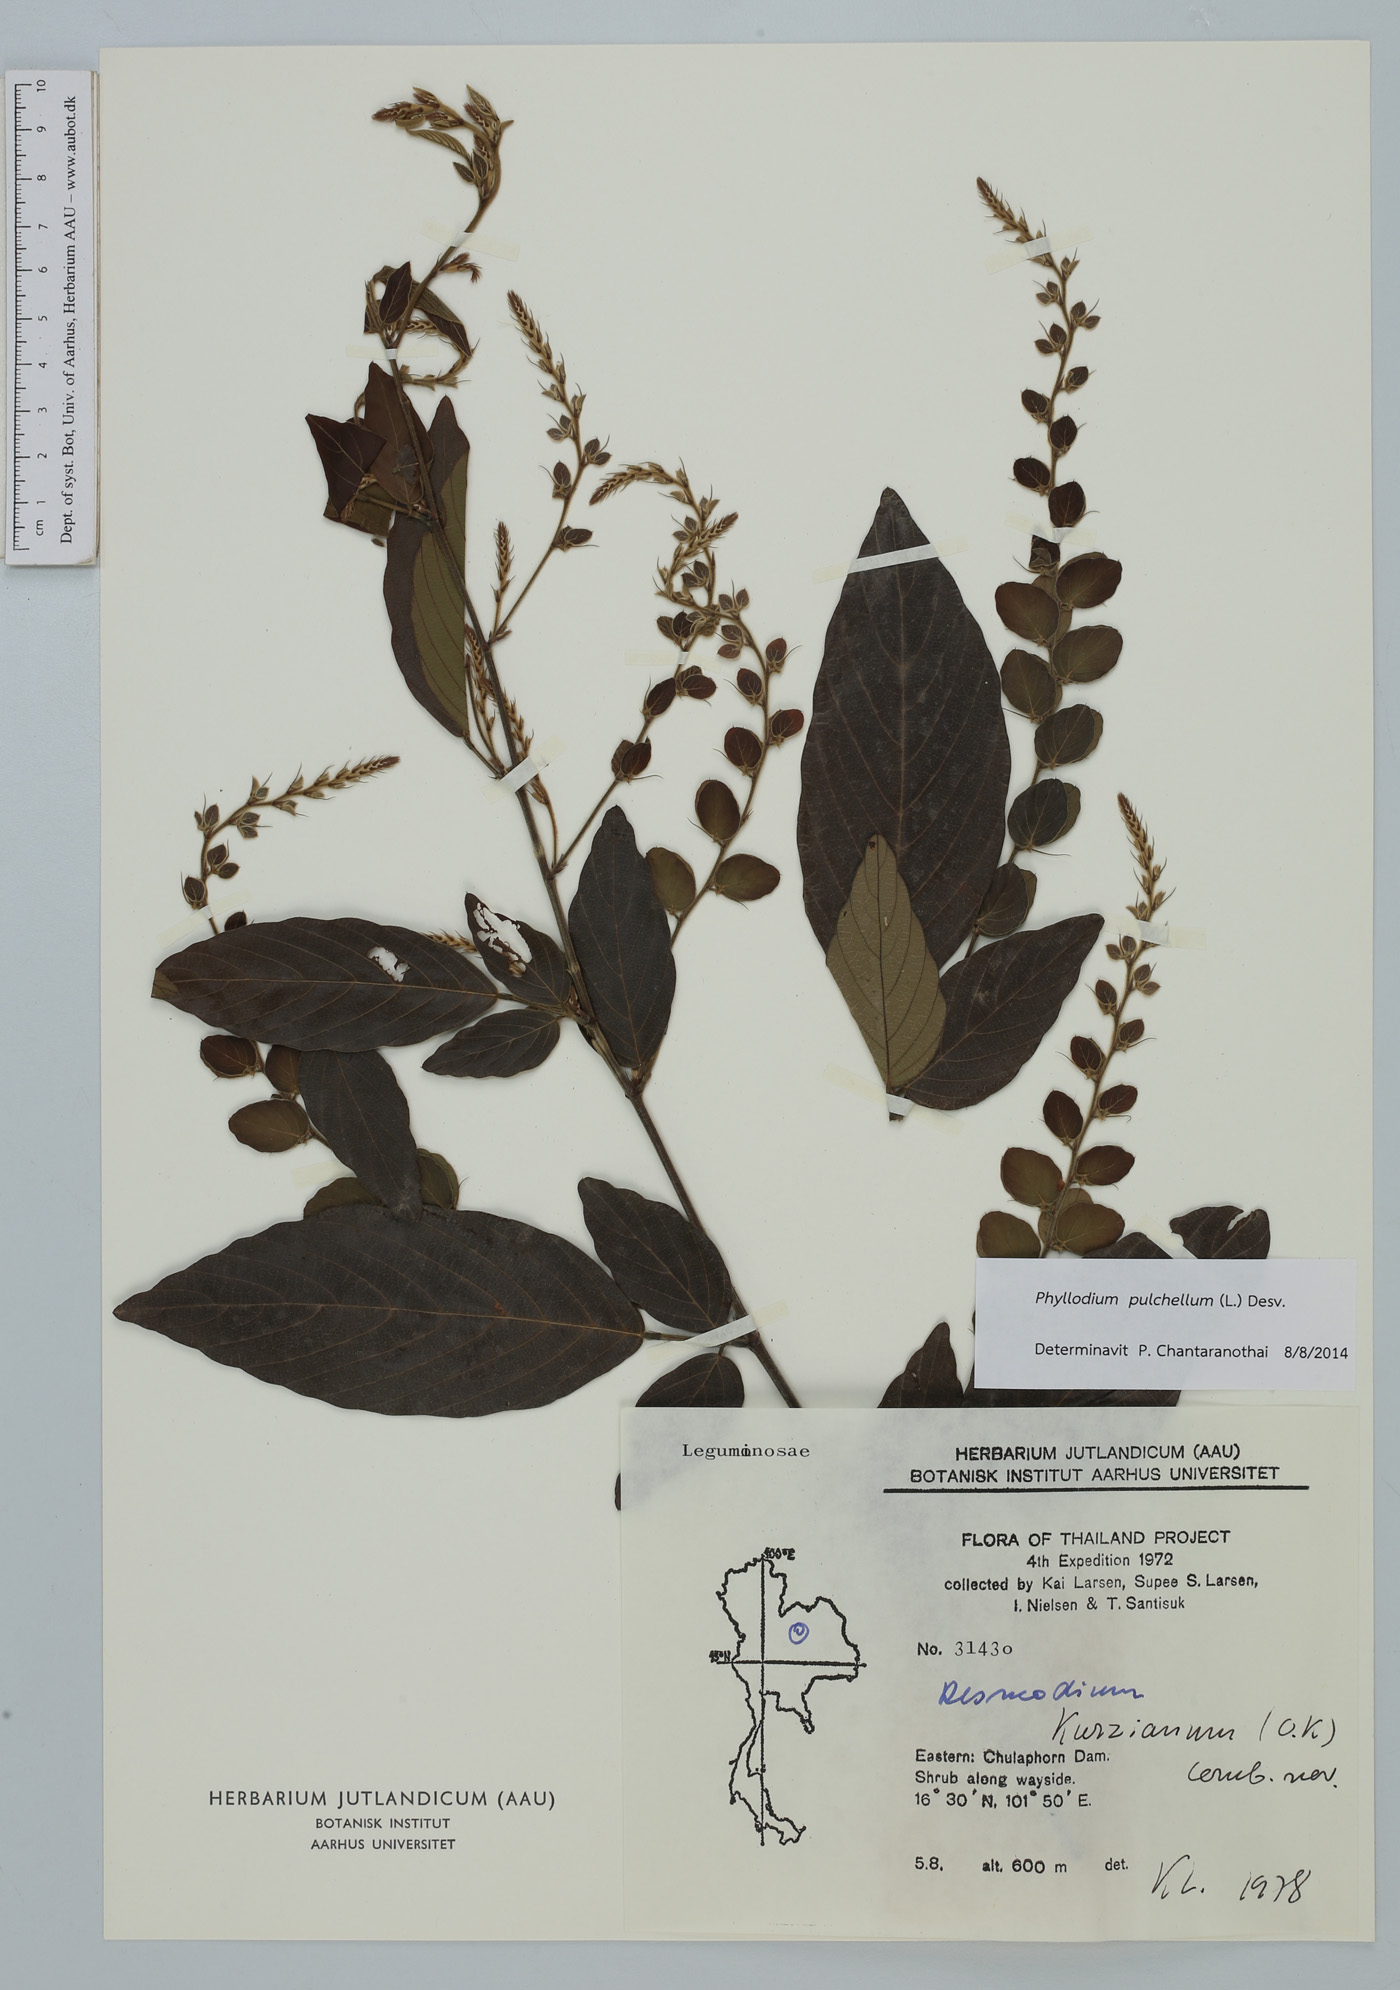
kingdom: Plantae
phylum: Tracheophyta
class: Magnoliopsida
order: Fabales
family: Fabaceae
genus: Phyllodium
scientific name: Phyllodium pulchellum
